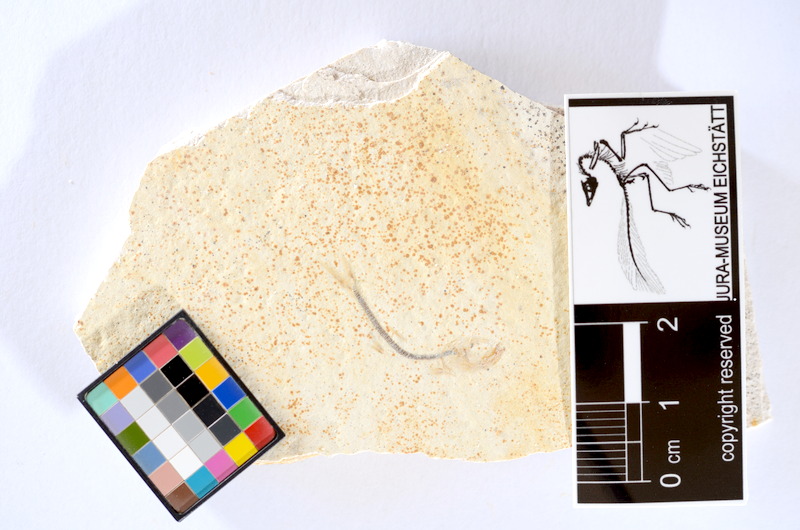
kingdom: Animalia
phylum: Chordata
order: Salmoniformes
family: Orthogonikleithridae
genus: Orthogonikleithrus
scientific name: Orthogonikleithrus hoelli
